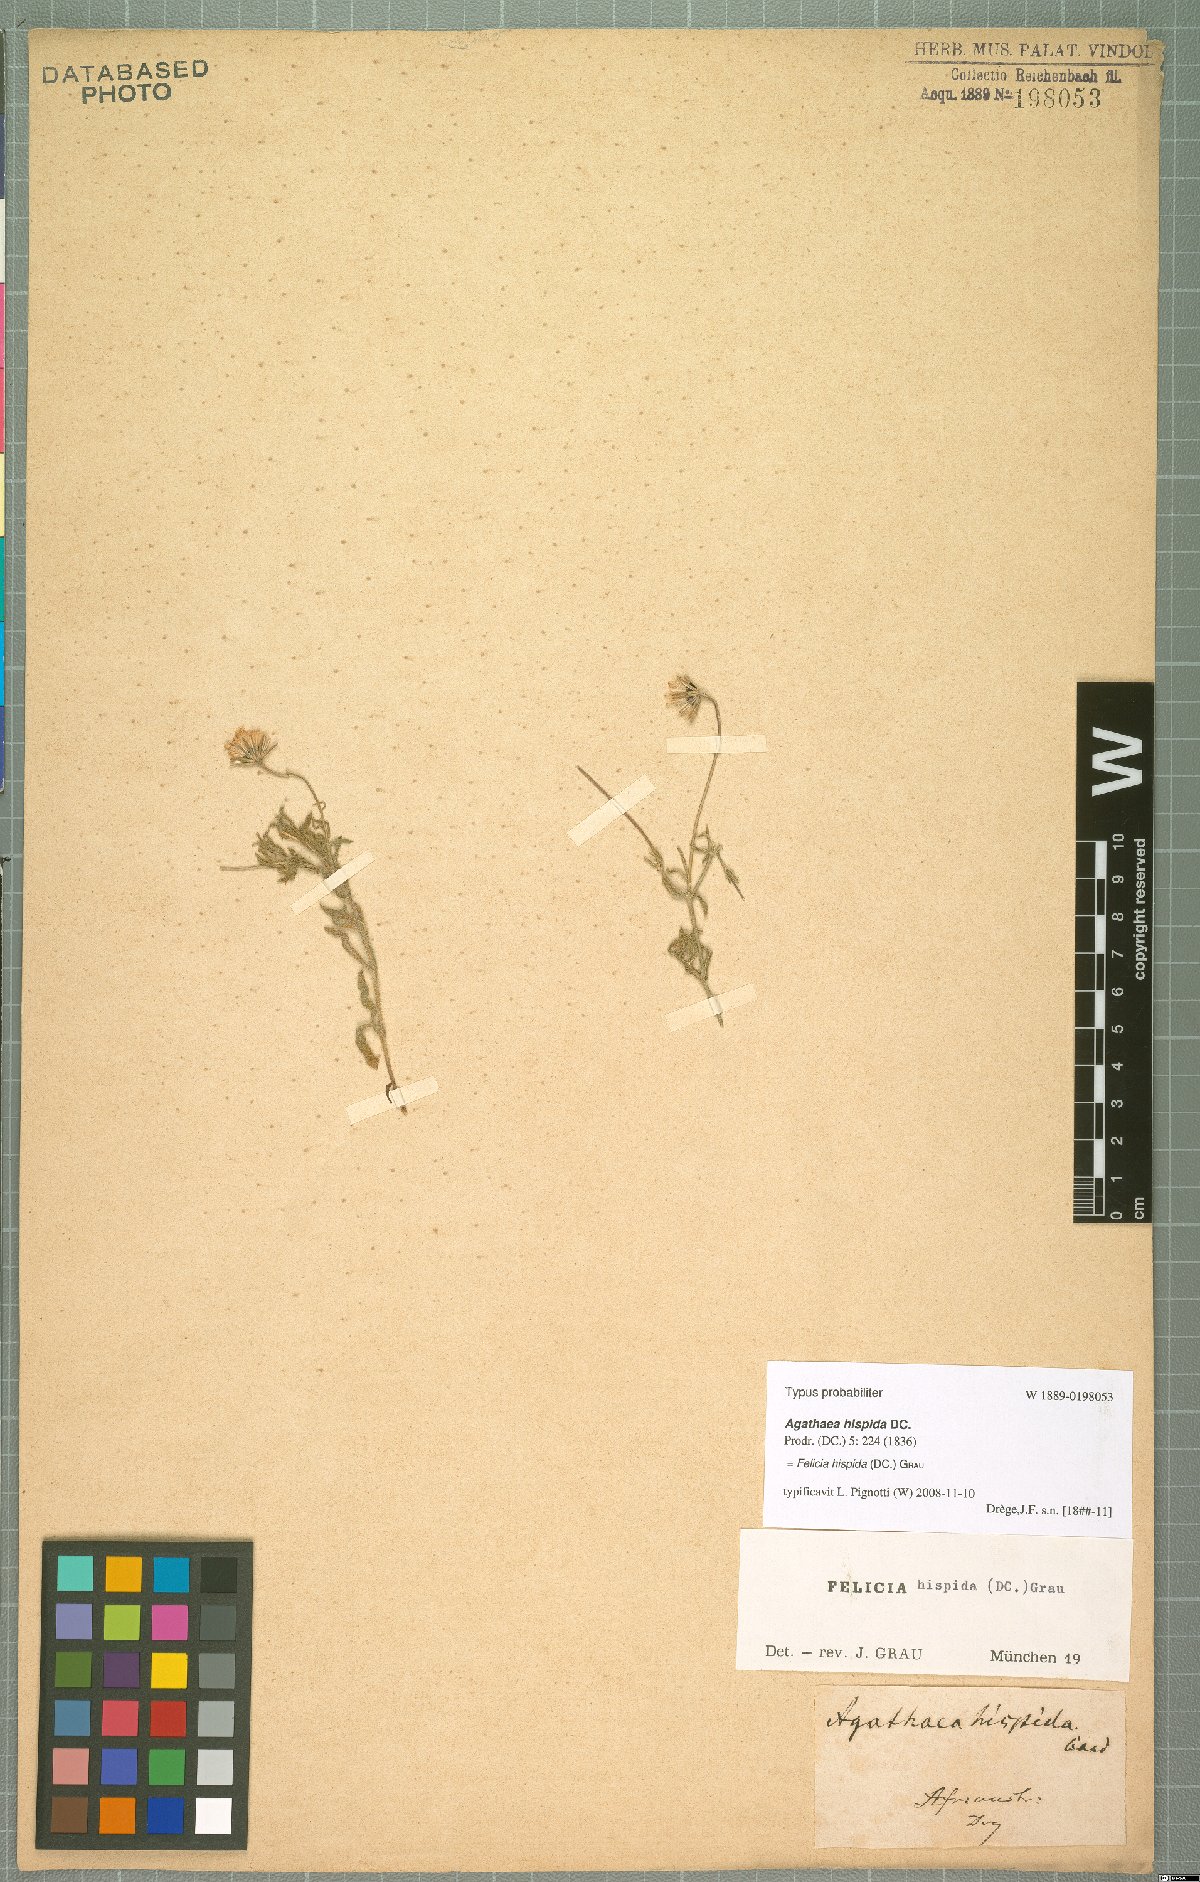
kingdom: Plantae
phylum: Tracheophyta
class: Magnoliopsida
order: Asterales
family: Asteraceae
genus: Felicia
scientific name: Felicia hispida
